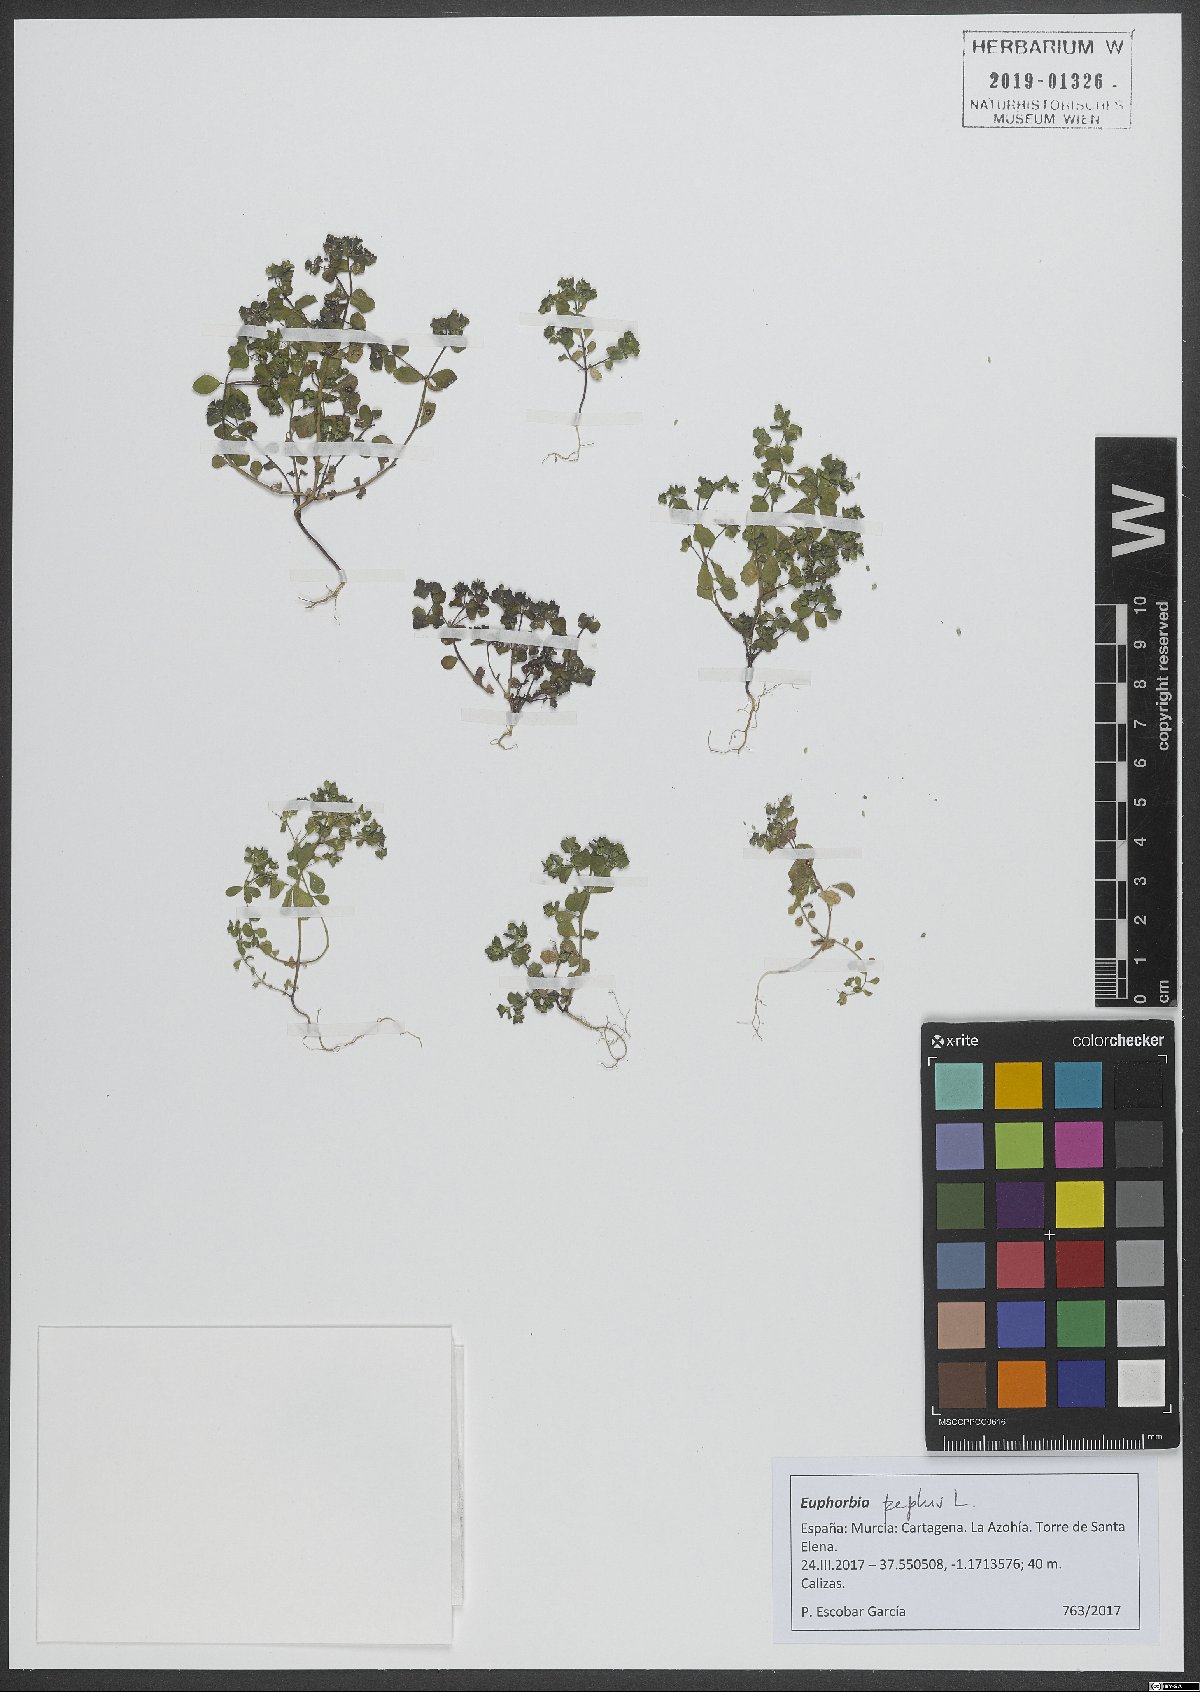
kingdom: Plantae
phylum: Tracheophyta
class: Magnoliopsida
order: Malpighiales
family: Euphorbiaceae
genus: Euphorbia
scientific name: Euphorbia peplus
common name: Petty spurge
